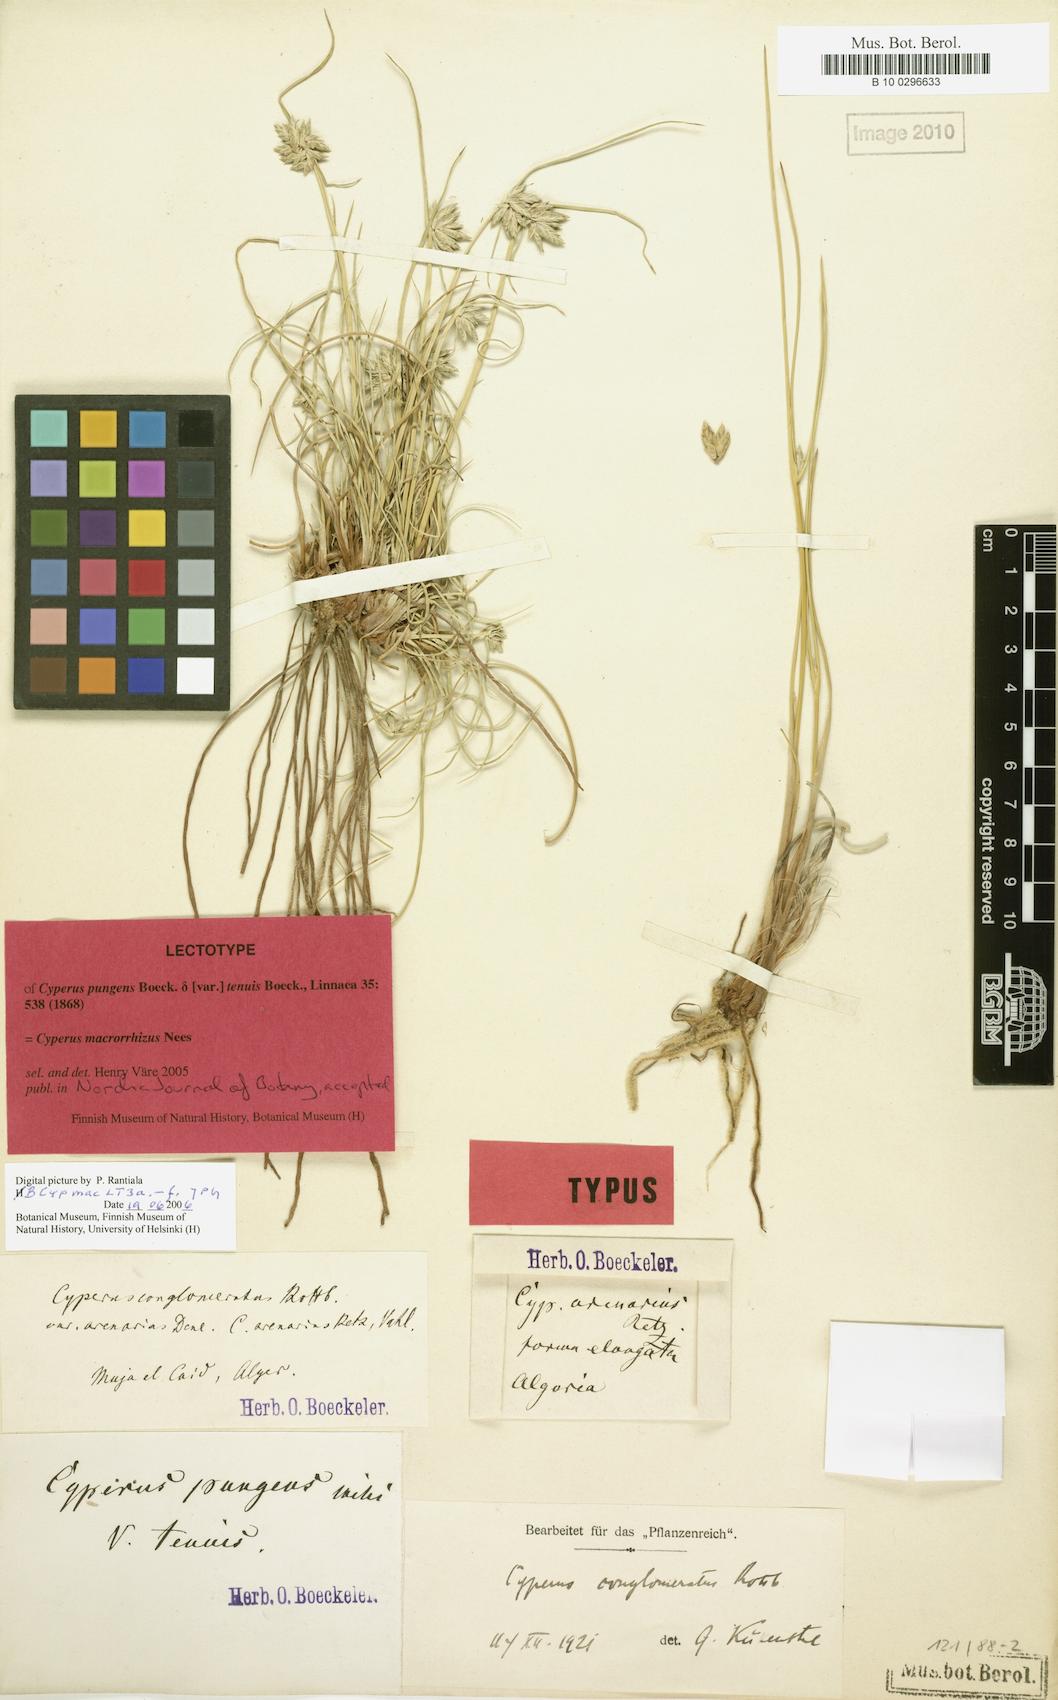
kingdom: Plantae
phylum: Tracheophyta
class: Liliopsida
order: Poales
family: Cyperaceae
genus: Cyperus
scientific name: Cyperus macrorrhizus
